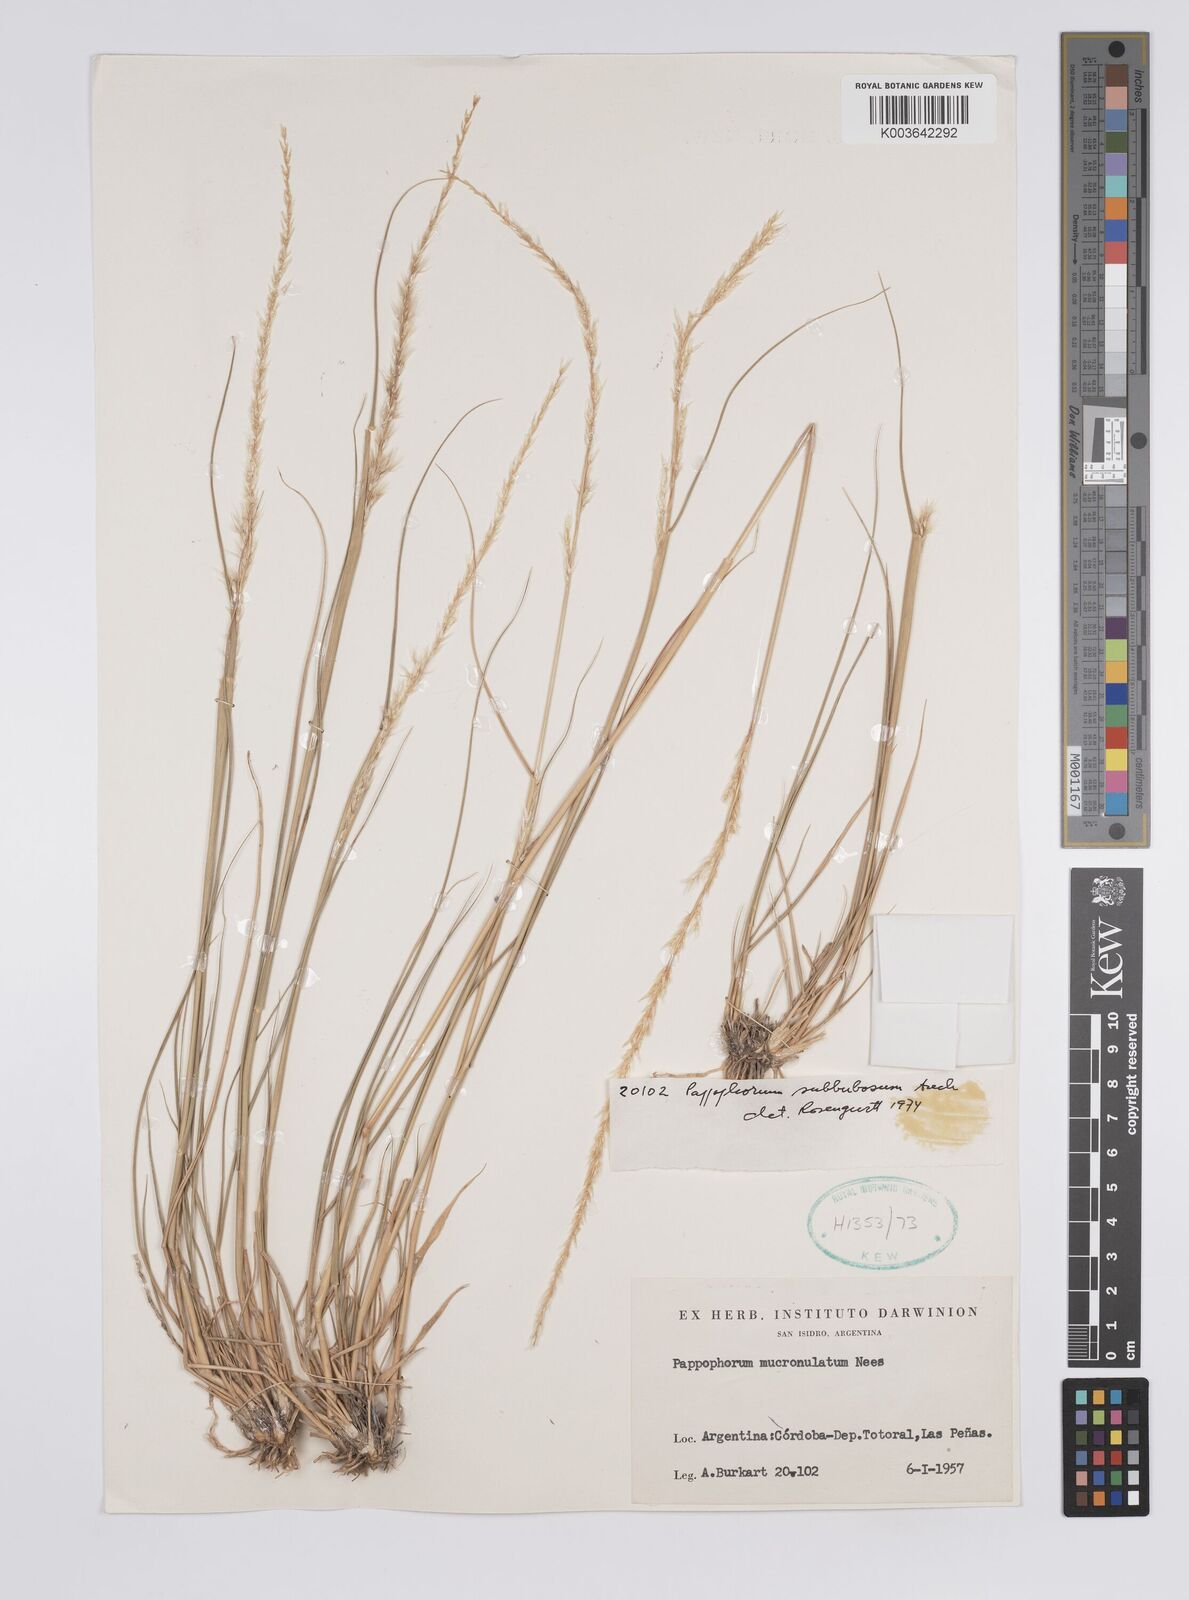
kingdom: Plantae
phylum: Tracheophyta
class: Liliopsida
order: Poales
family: Poaceae
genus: Pappophorum
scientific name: Pappophorum mucronulatum
